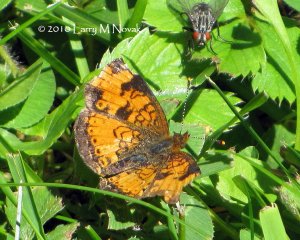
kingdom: Animalia
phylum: Arthropoda
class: Insecta
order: Lepidoptera
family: Nymphalidae
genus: Phyciodes
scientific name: Phyciodes tharos
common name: Northern Crescent
